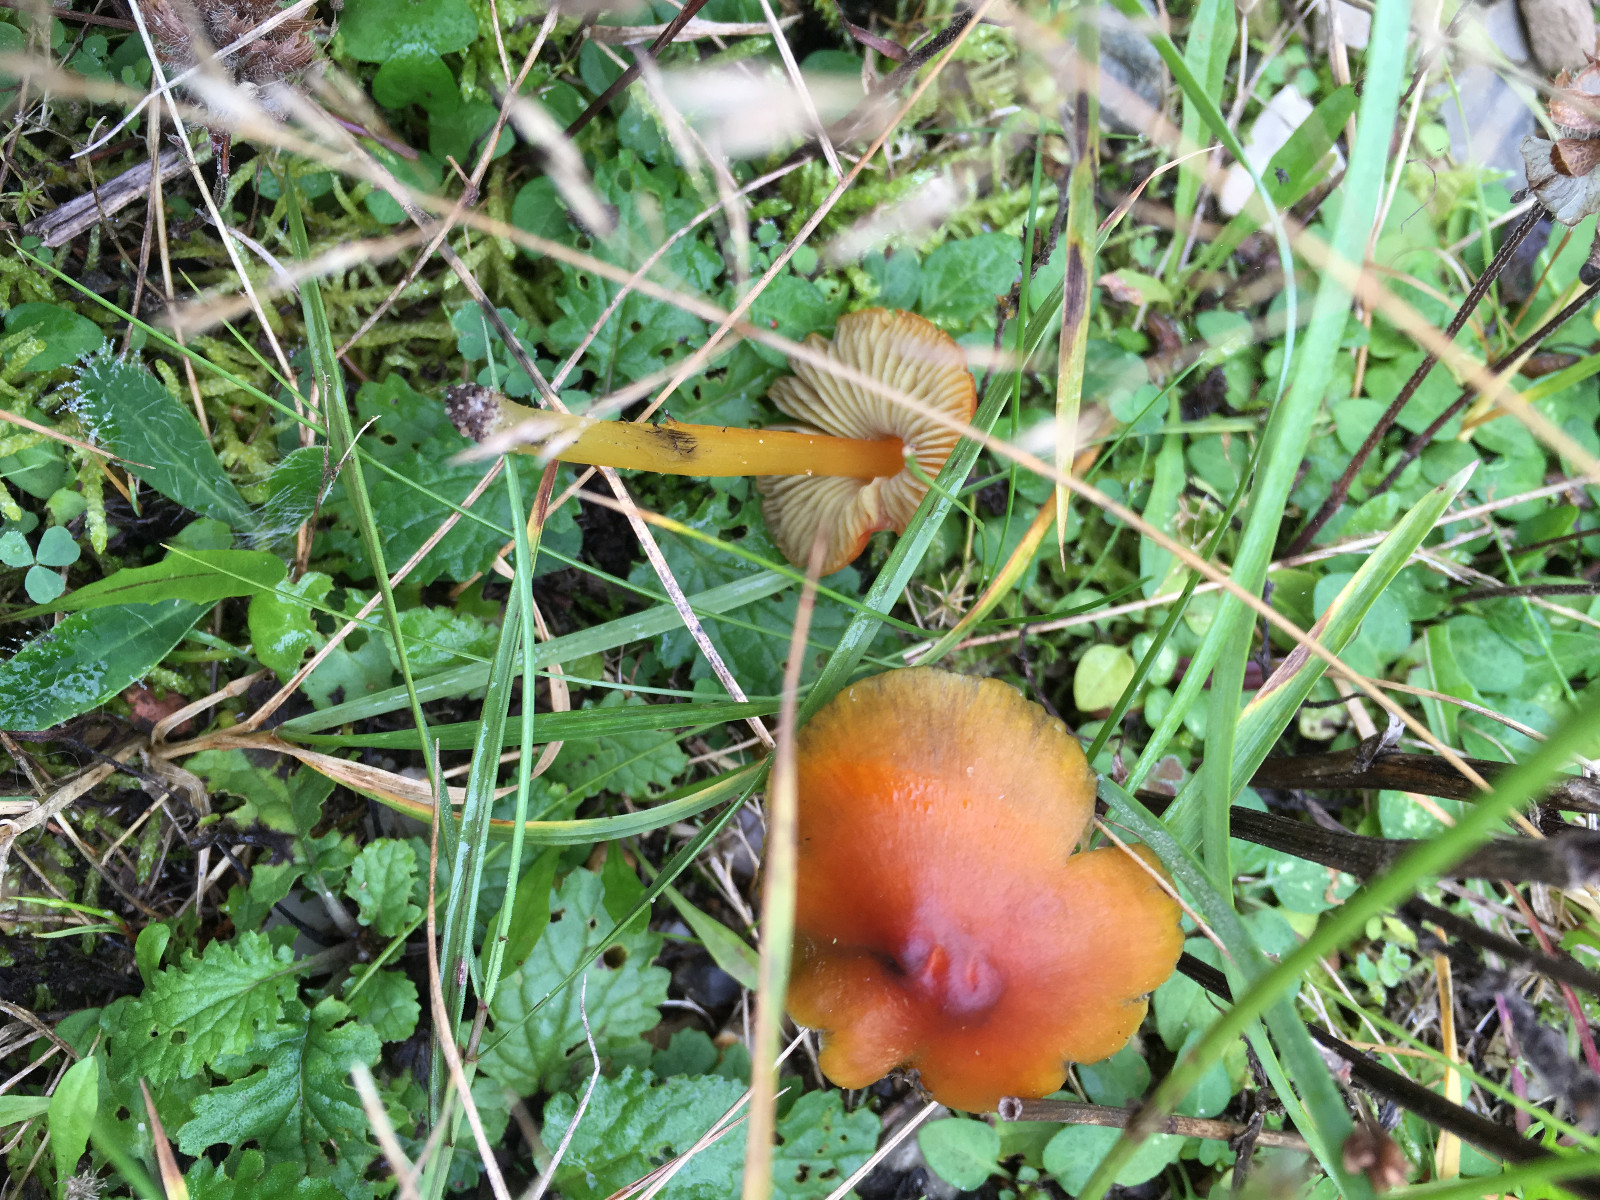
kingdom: Fungi
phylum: Basidiomycota
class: Agaricomycetes
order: Agaricales
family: Hygrophoraceae
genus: Hygrocybe
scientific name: Hygrocybe conica
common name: kegle-vokshat
